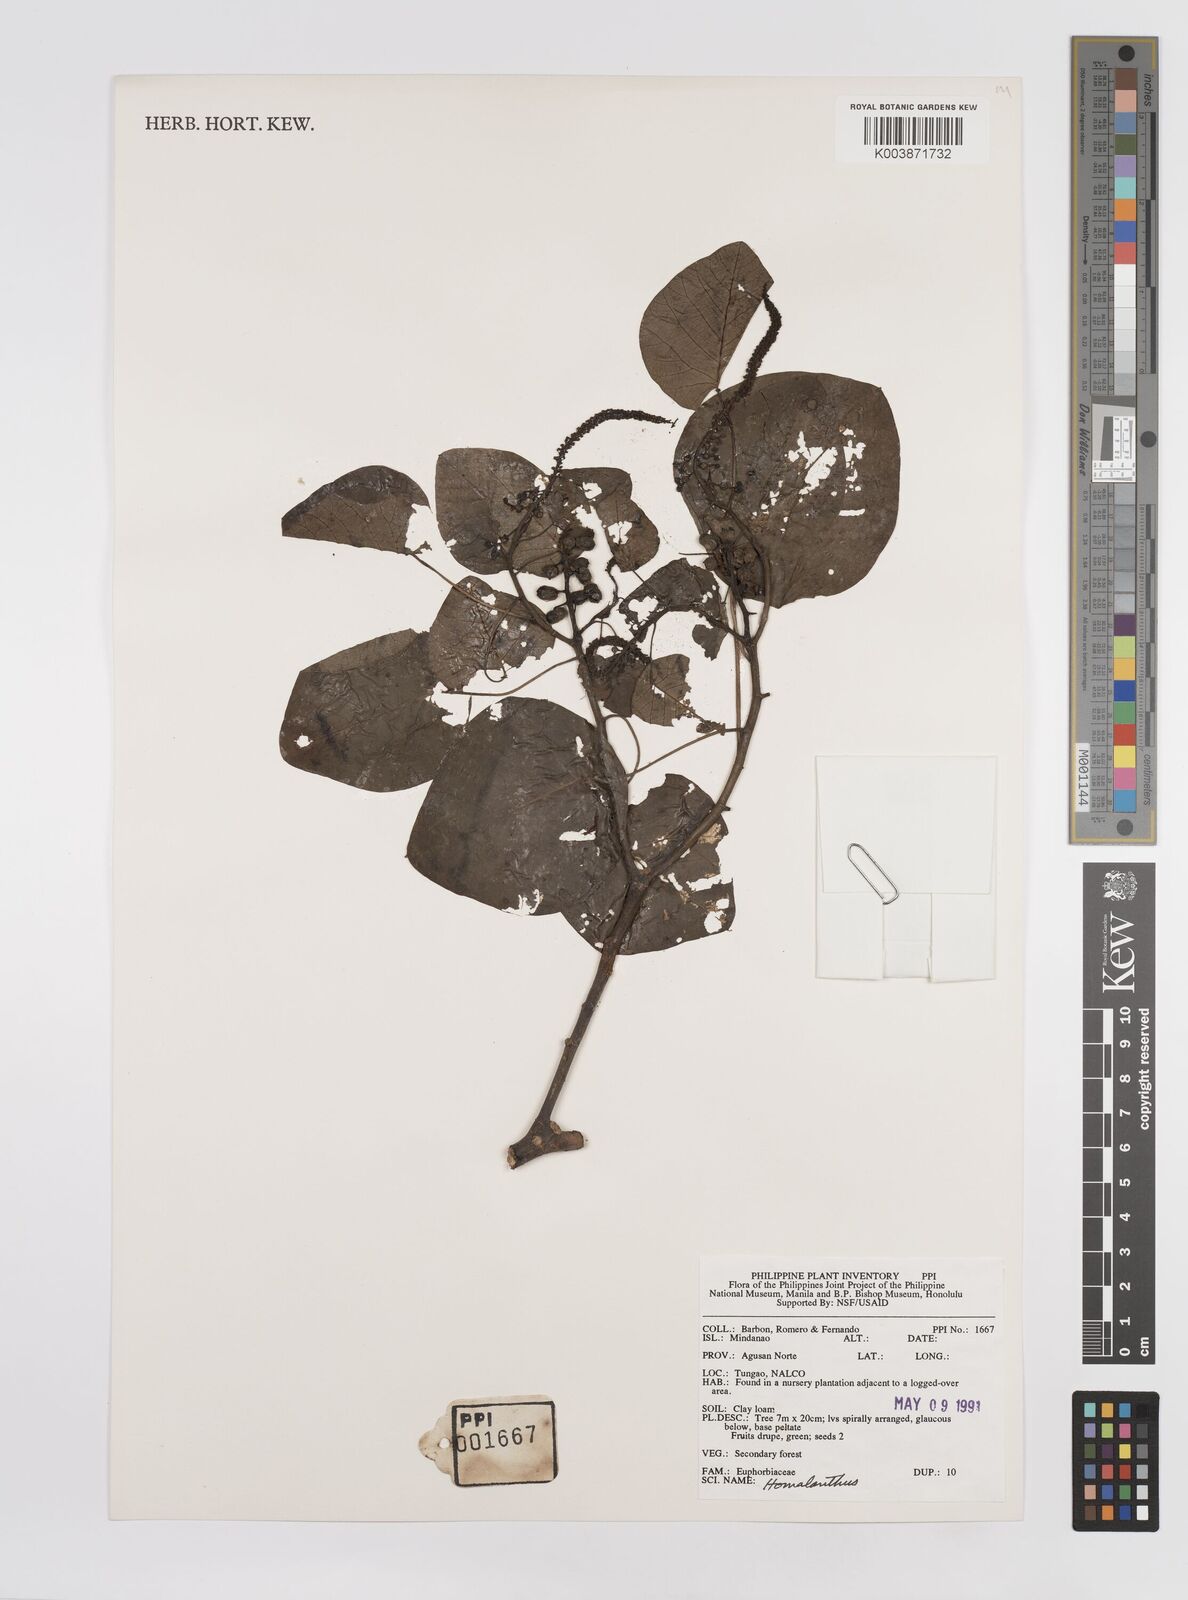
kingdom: Plantae
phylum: Tracheophyta
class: Magnoliopsida
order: Malpighiales
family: Euphorbiaceae
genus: Homalanthus
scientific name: Homalanthus macradenius
